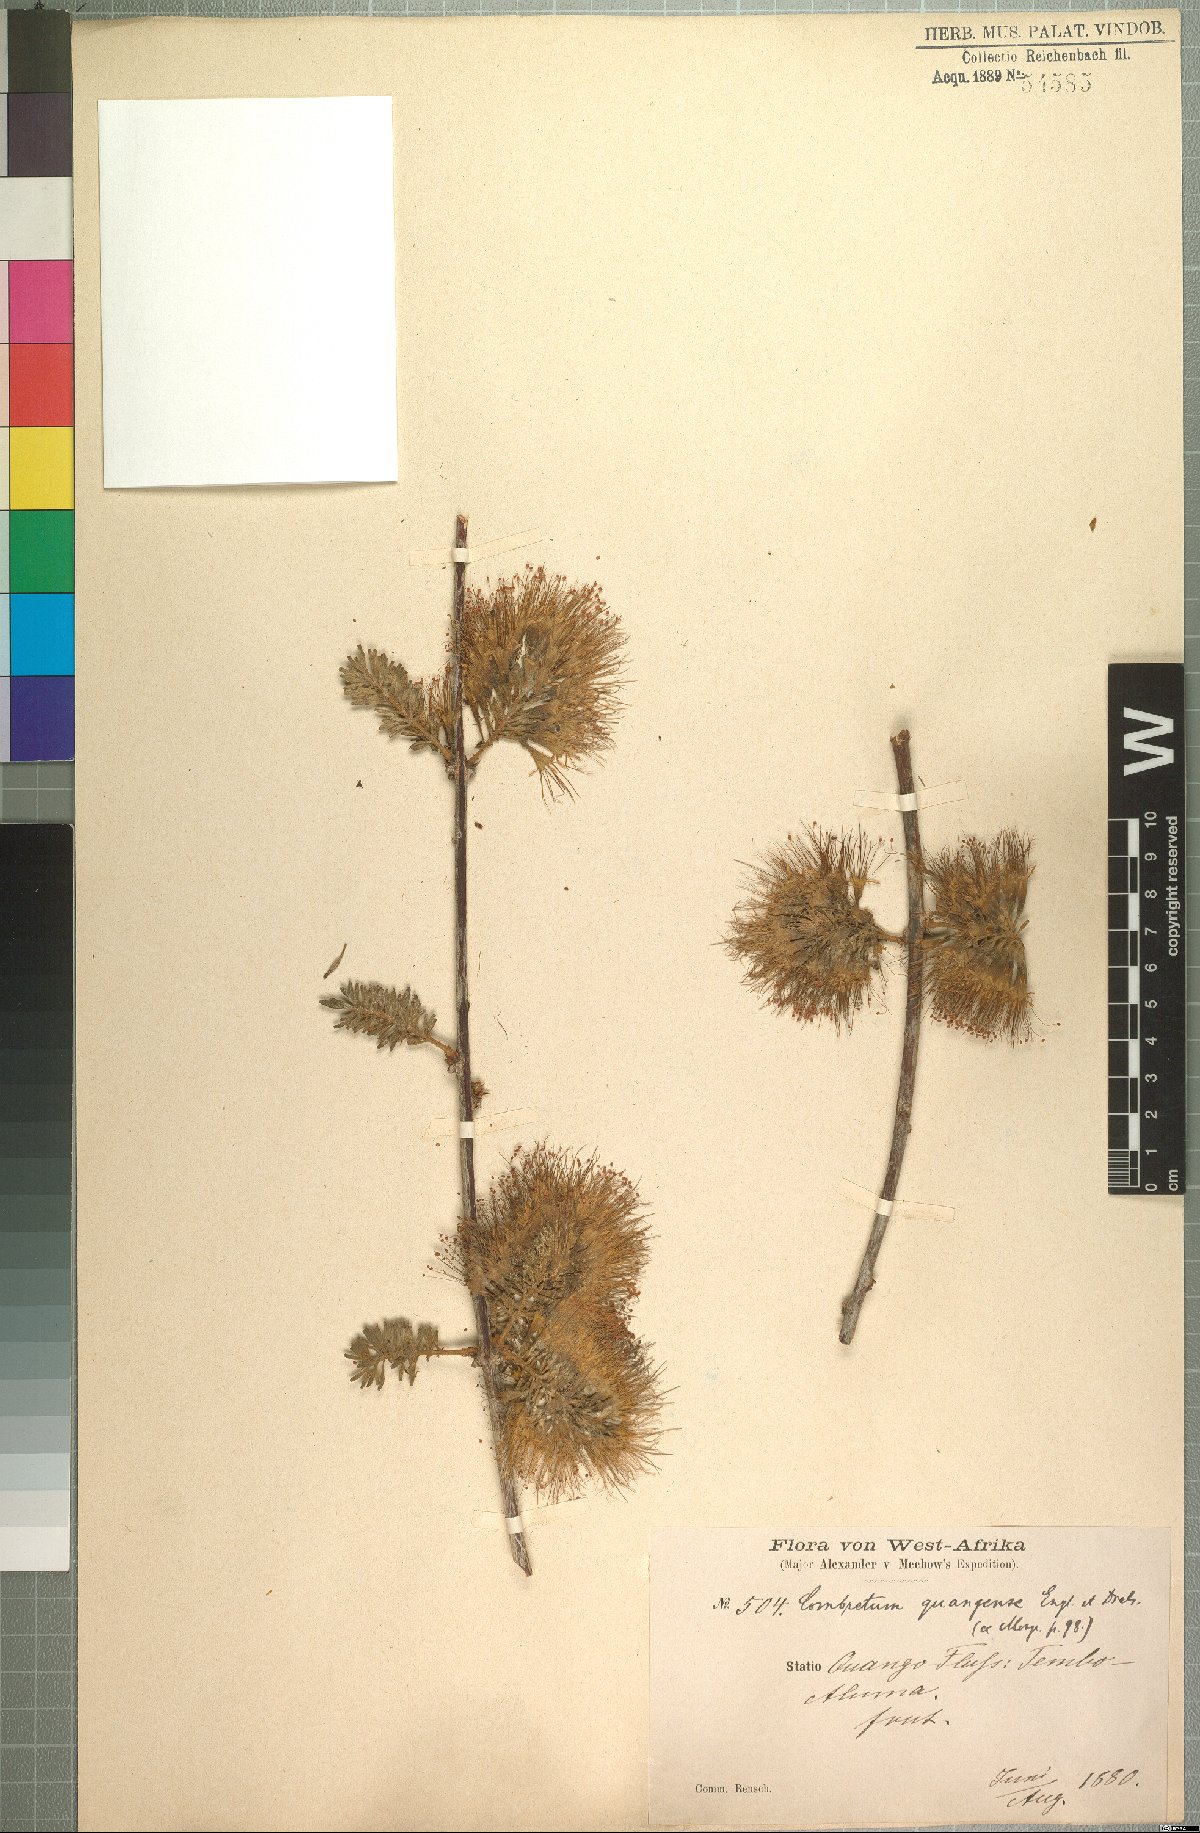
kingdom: Plantae
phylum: Tracheophyta
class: Magnoliopsida
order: Myrtales
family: Combretaceae
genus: Combretum
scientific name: Combretum mossambicense
